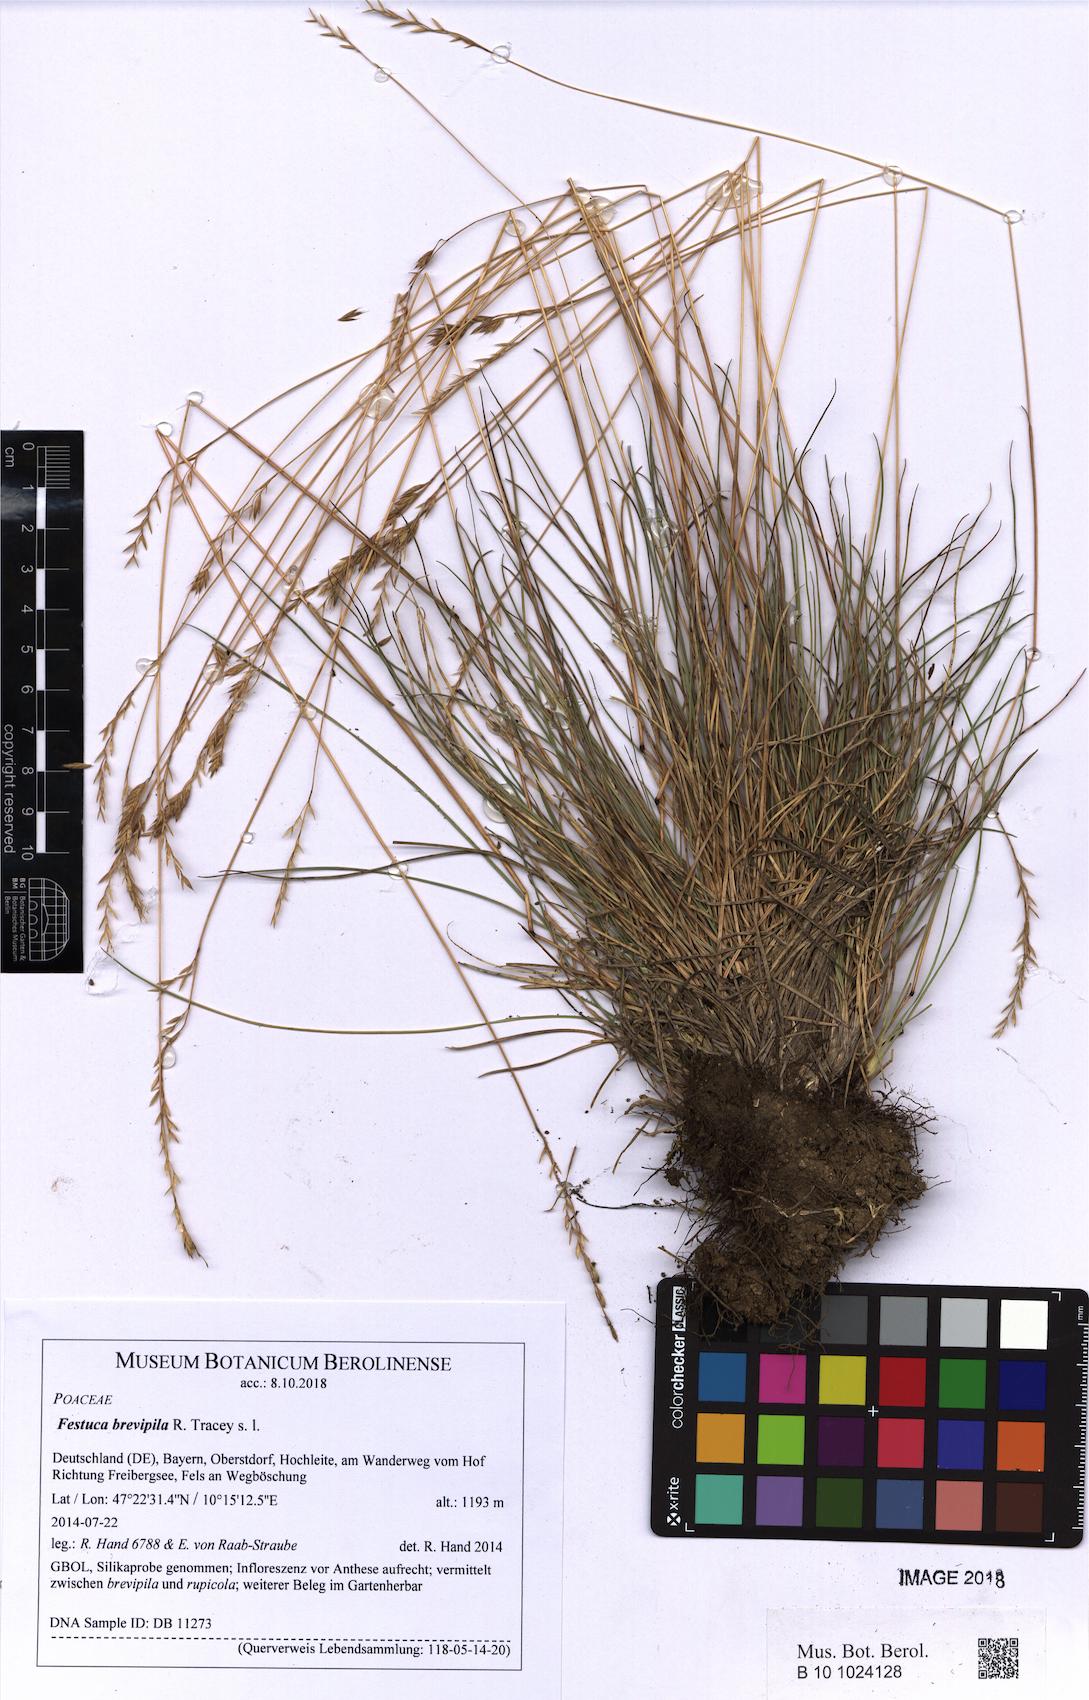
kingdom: Plantae
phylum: Tracheophyta
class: Liliopsida
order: Poales
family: Poaceae
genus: Festuca
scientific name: Festuca trachyphylla
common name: Hard fescue
